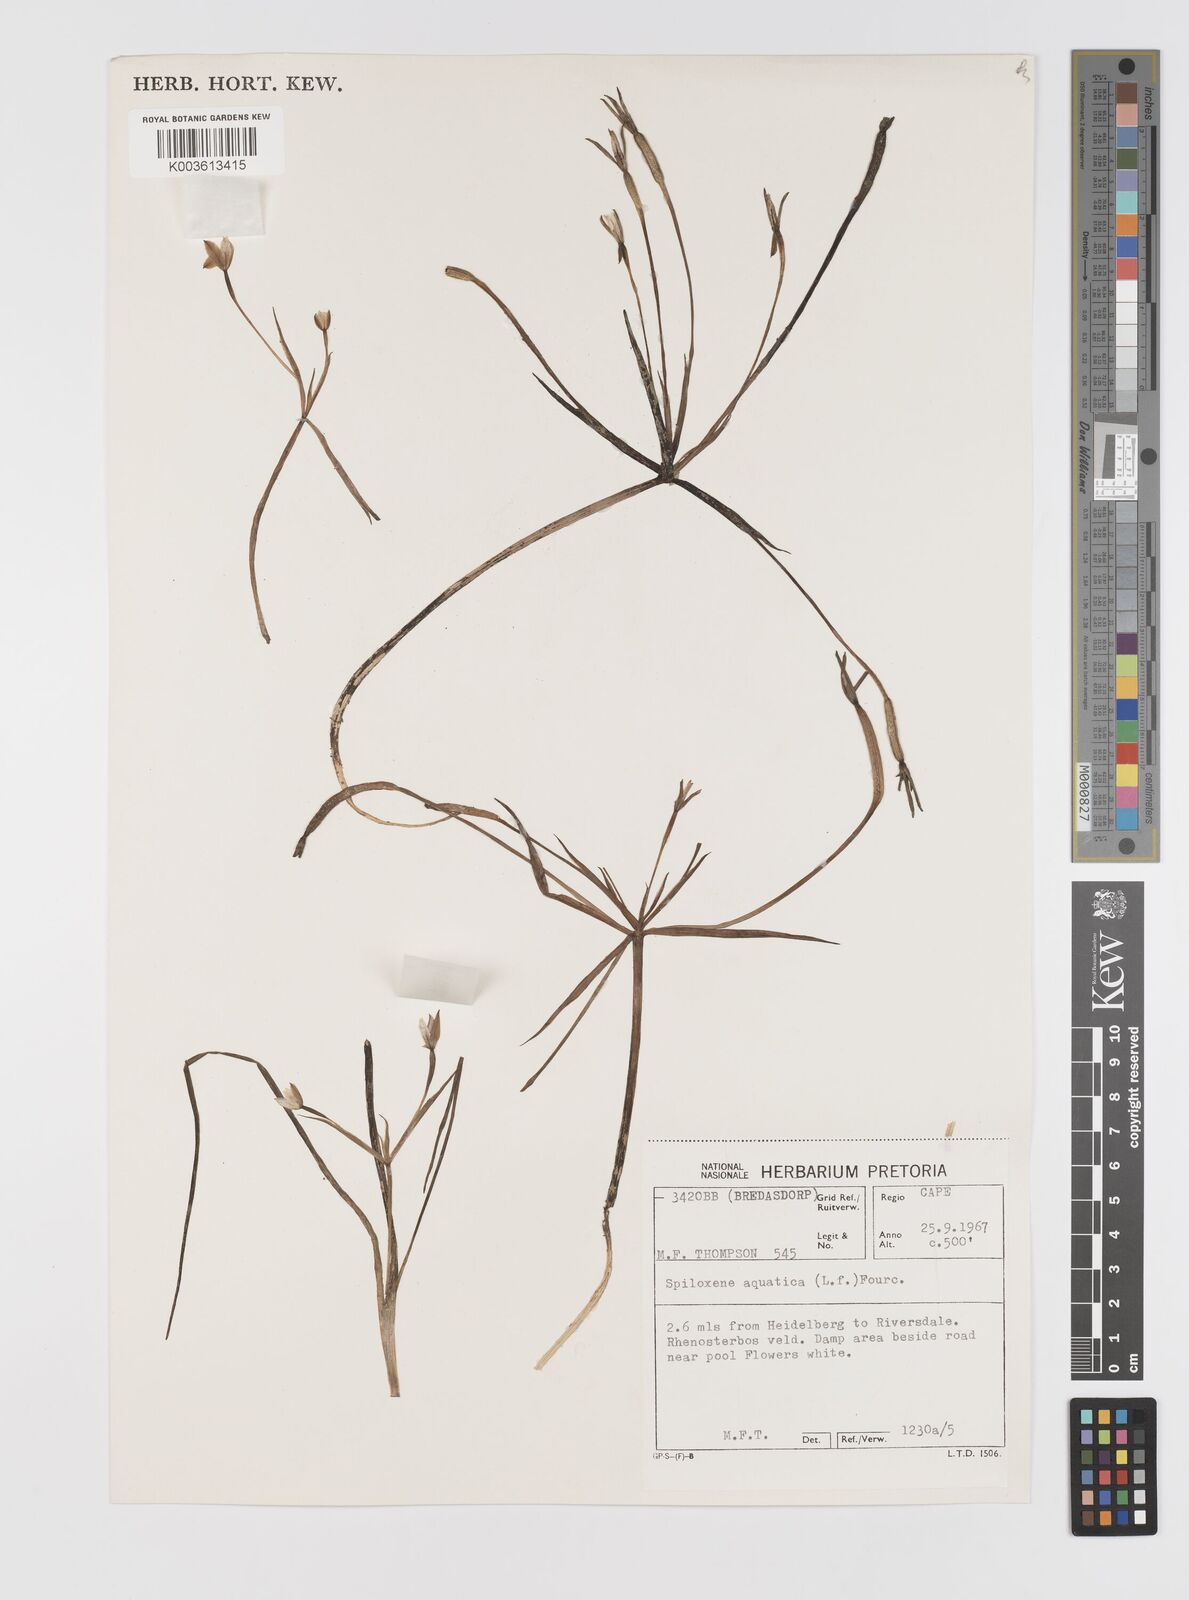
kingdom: Plantae
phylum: Tracheophyta
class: Liliopsida
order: Asparagales
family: Hypoxidaceae
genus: Pauridia
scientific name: Pauridia aquatica
